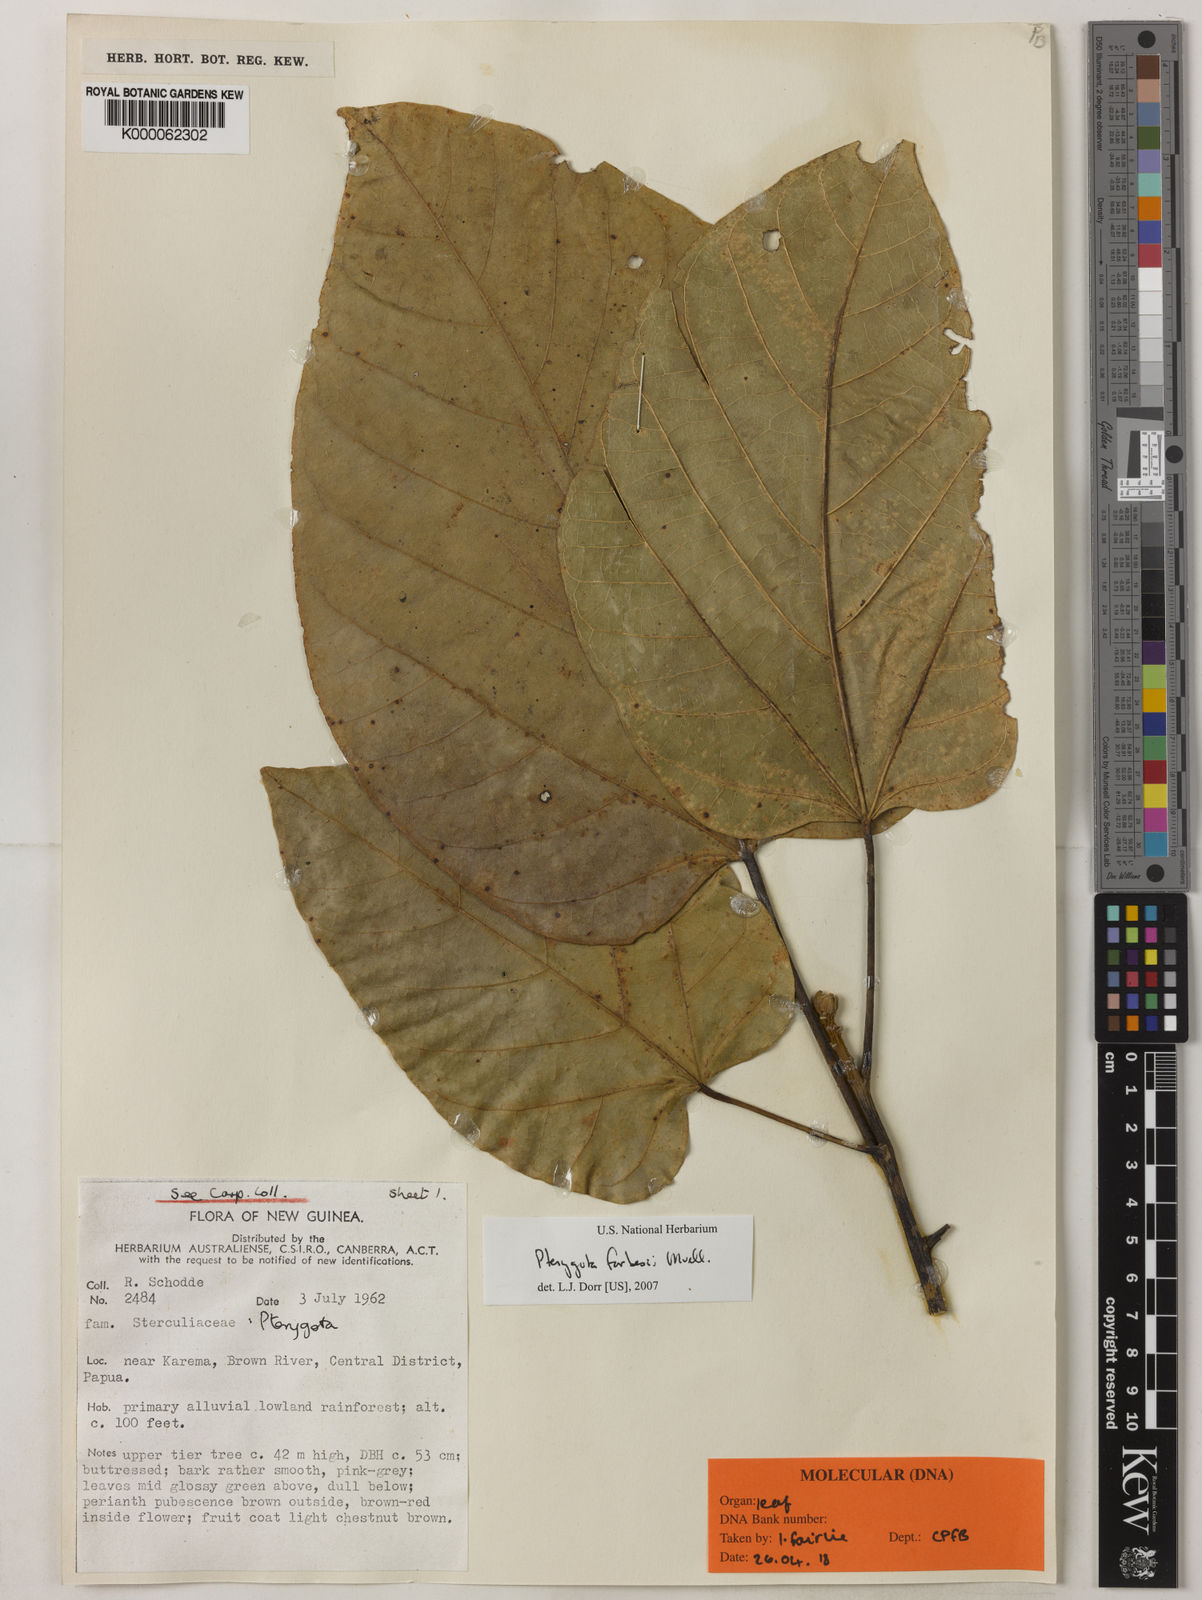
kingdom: Plantae
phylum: Tracheophyta
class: Magnoliopsida
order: Malvales
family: Malvaceae
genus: Pterygota
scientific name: Pterygota horsfieldii
